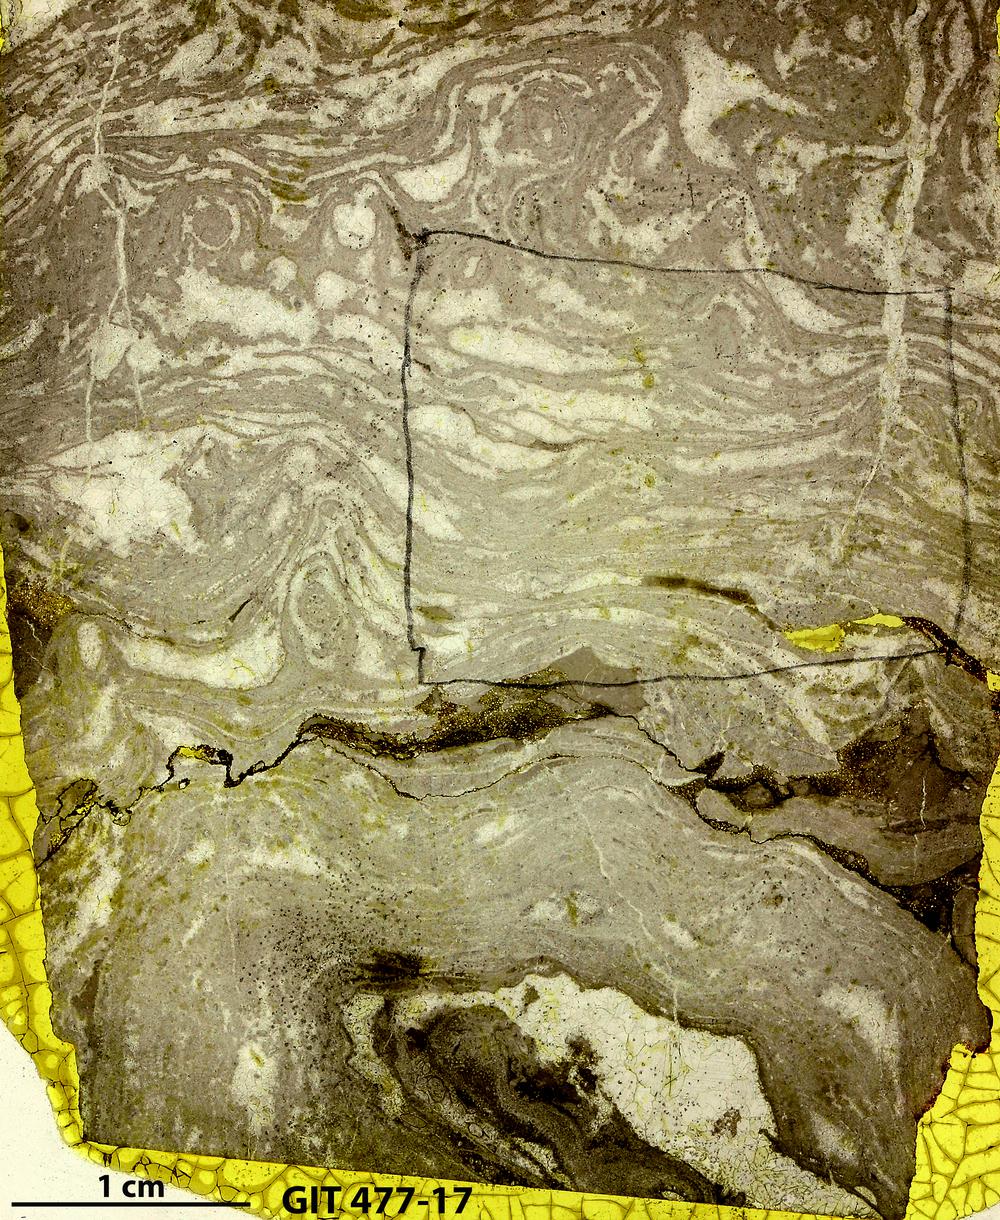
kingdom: Animalia
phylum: Porifera
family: Rosenellidae
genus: Pseudostylodictyon
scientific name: Pseudostylodictyon
